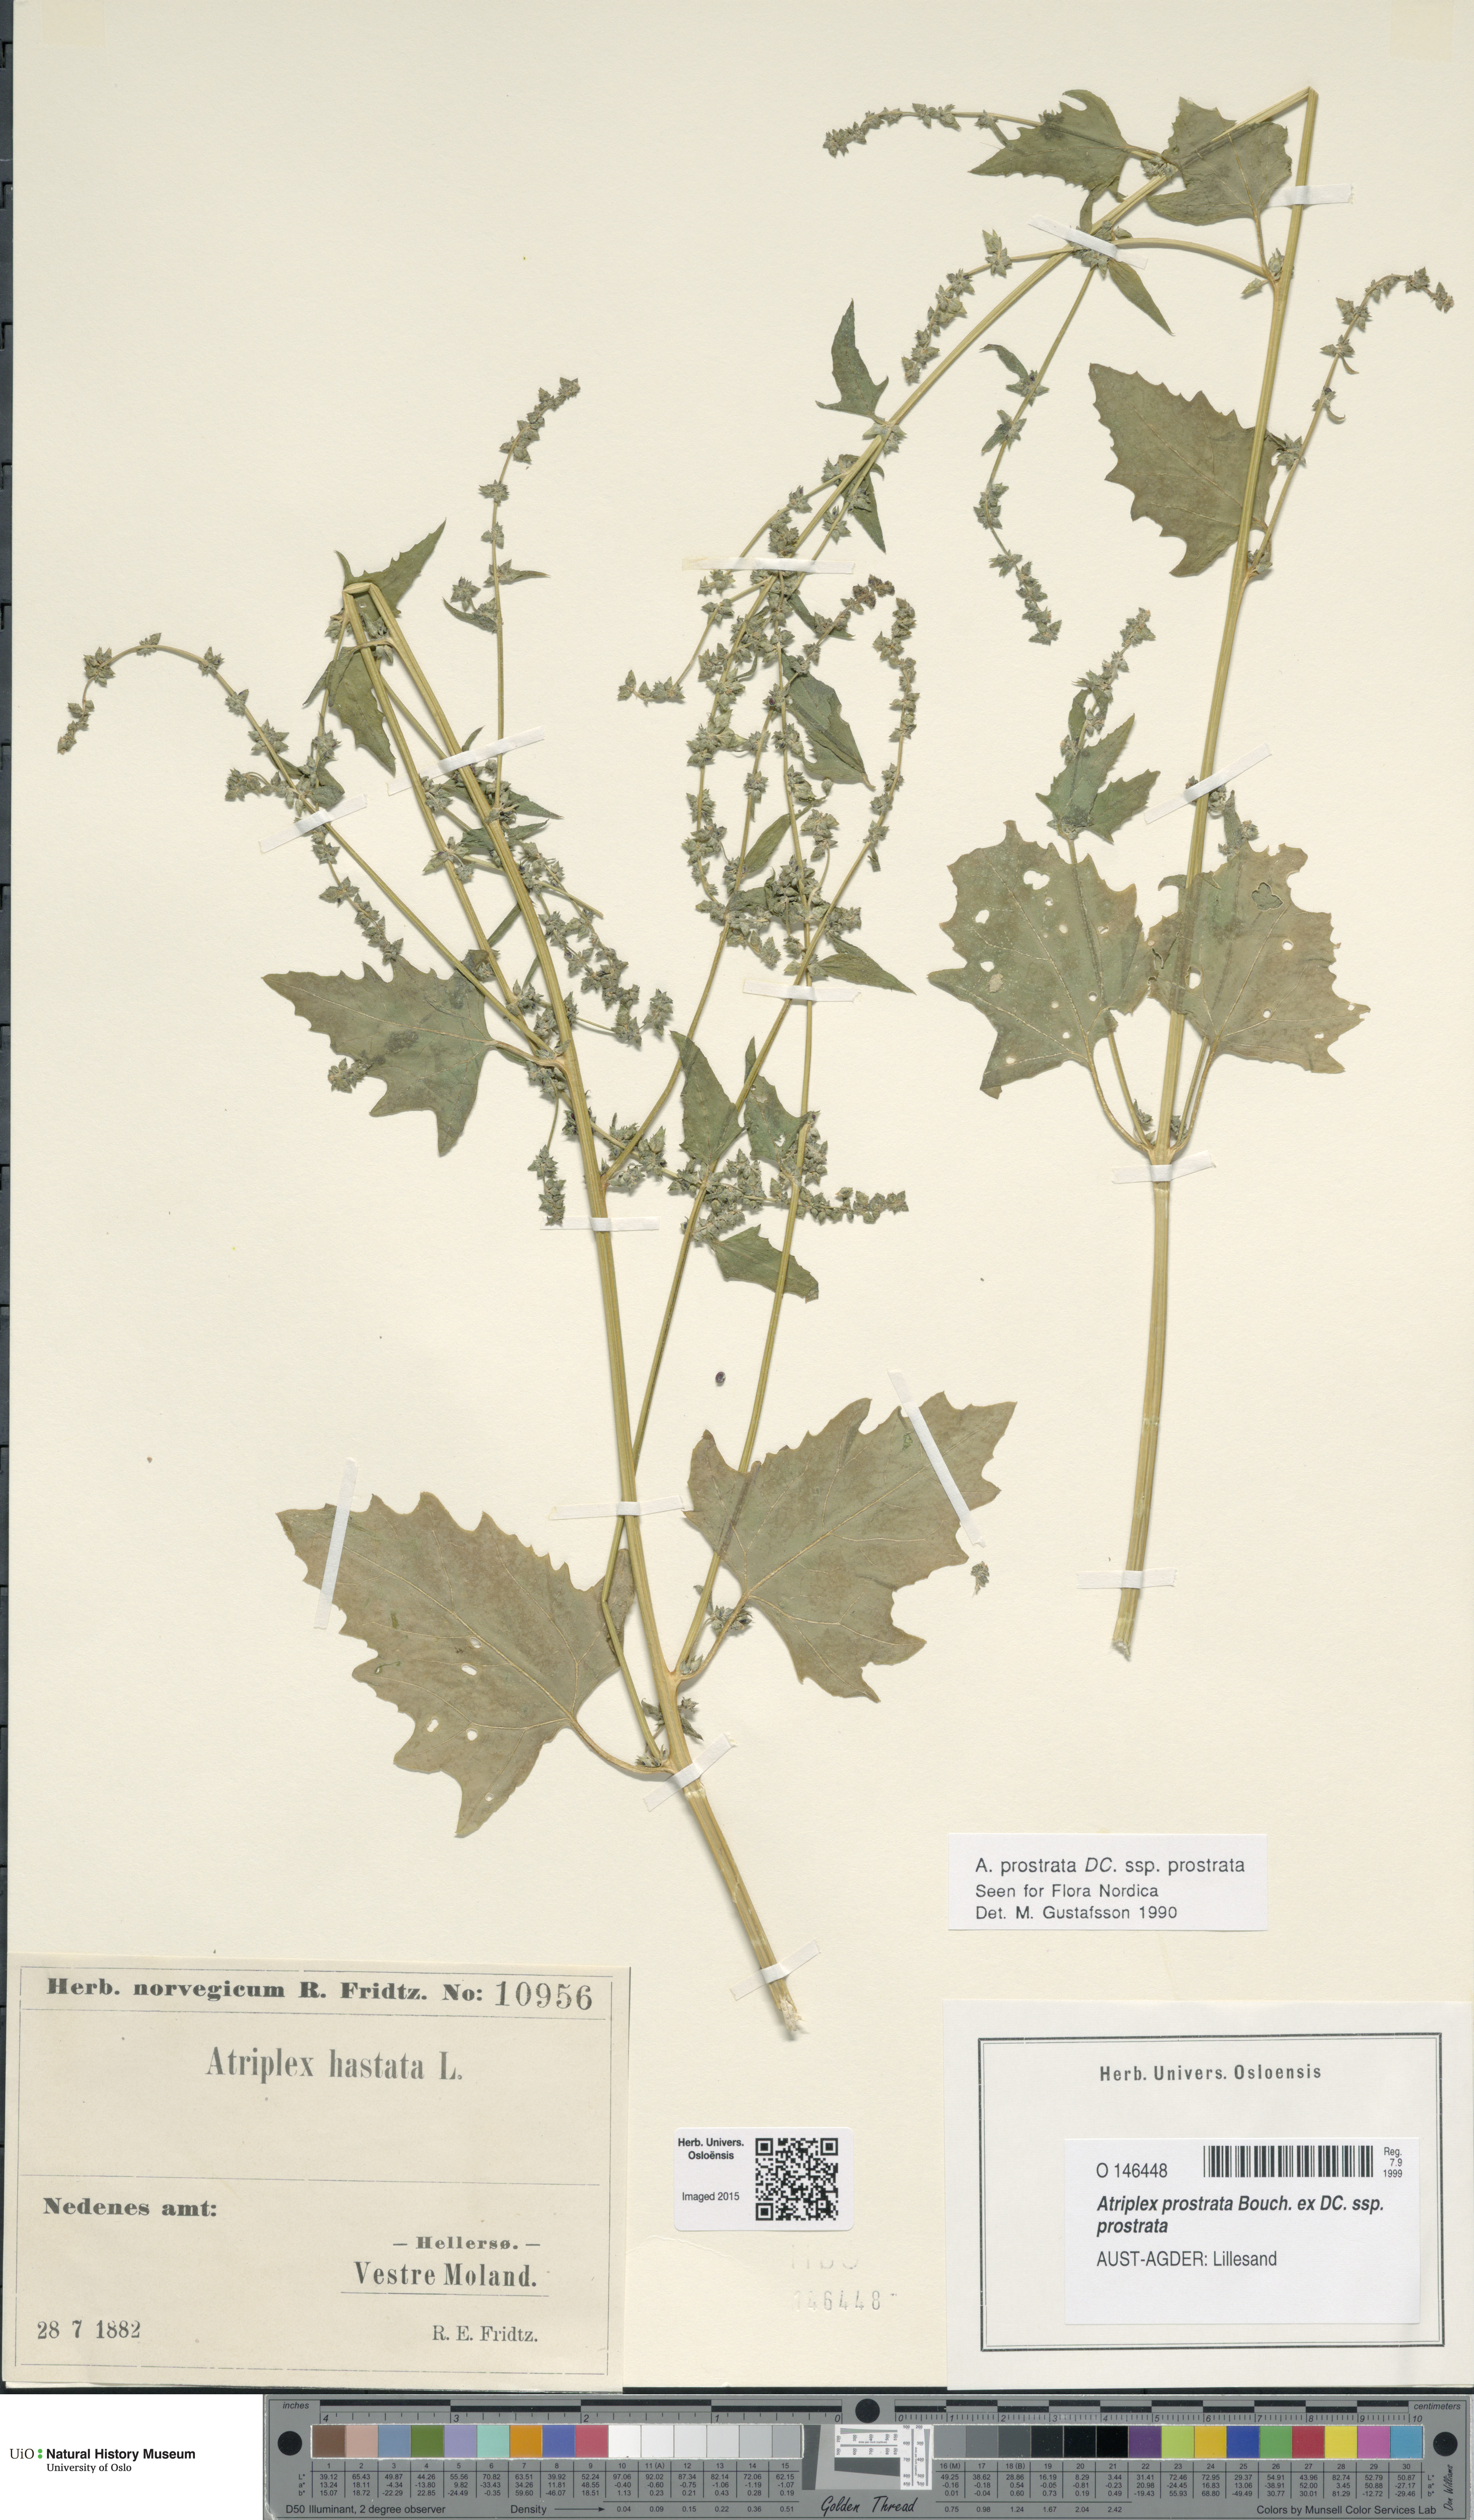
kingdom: Plantae
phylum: Tracheophyta
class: Magnoliopsida
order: Caryophyllales
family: Amaranthaceae
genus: Atriplex
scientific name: Atriplex prostrata
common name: Spear-leaved orache
